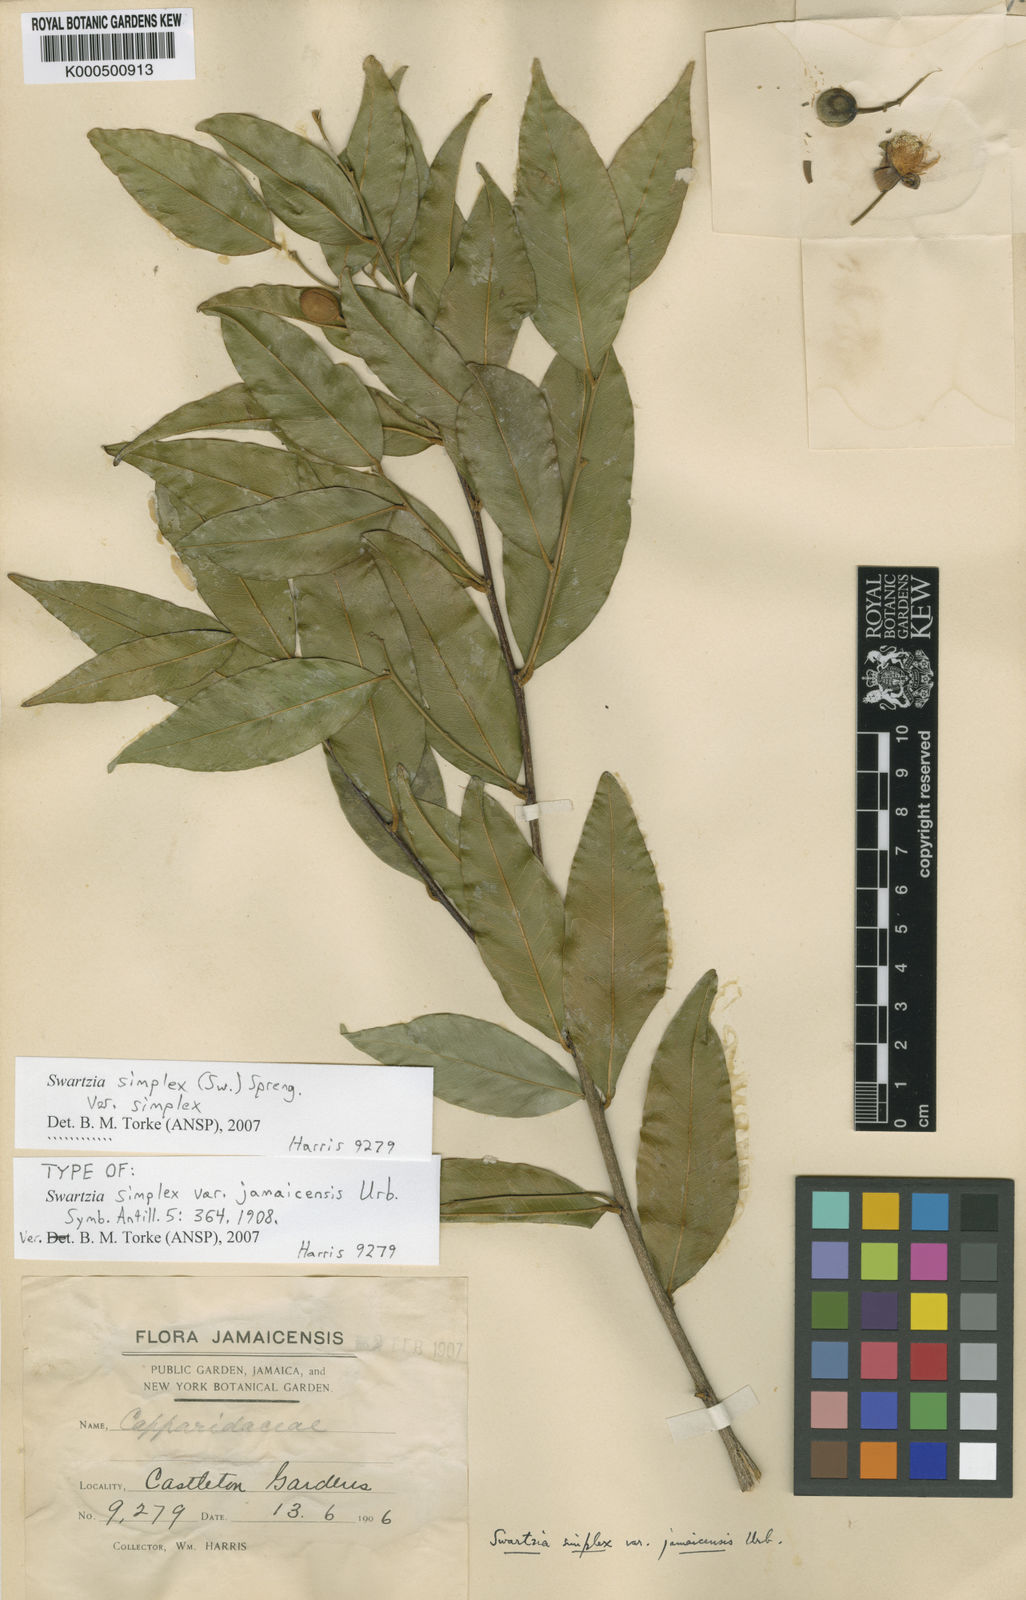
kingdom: Plantae
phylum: Tracheophyta
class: Magnoliopsida
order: Fabales
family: Fabaceae
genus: Swartzia
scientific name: Swartzia simplex
